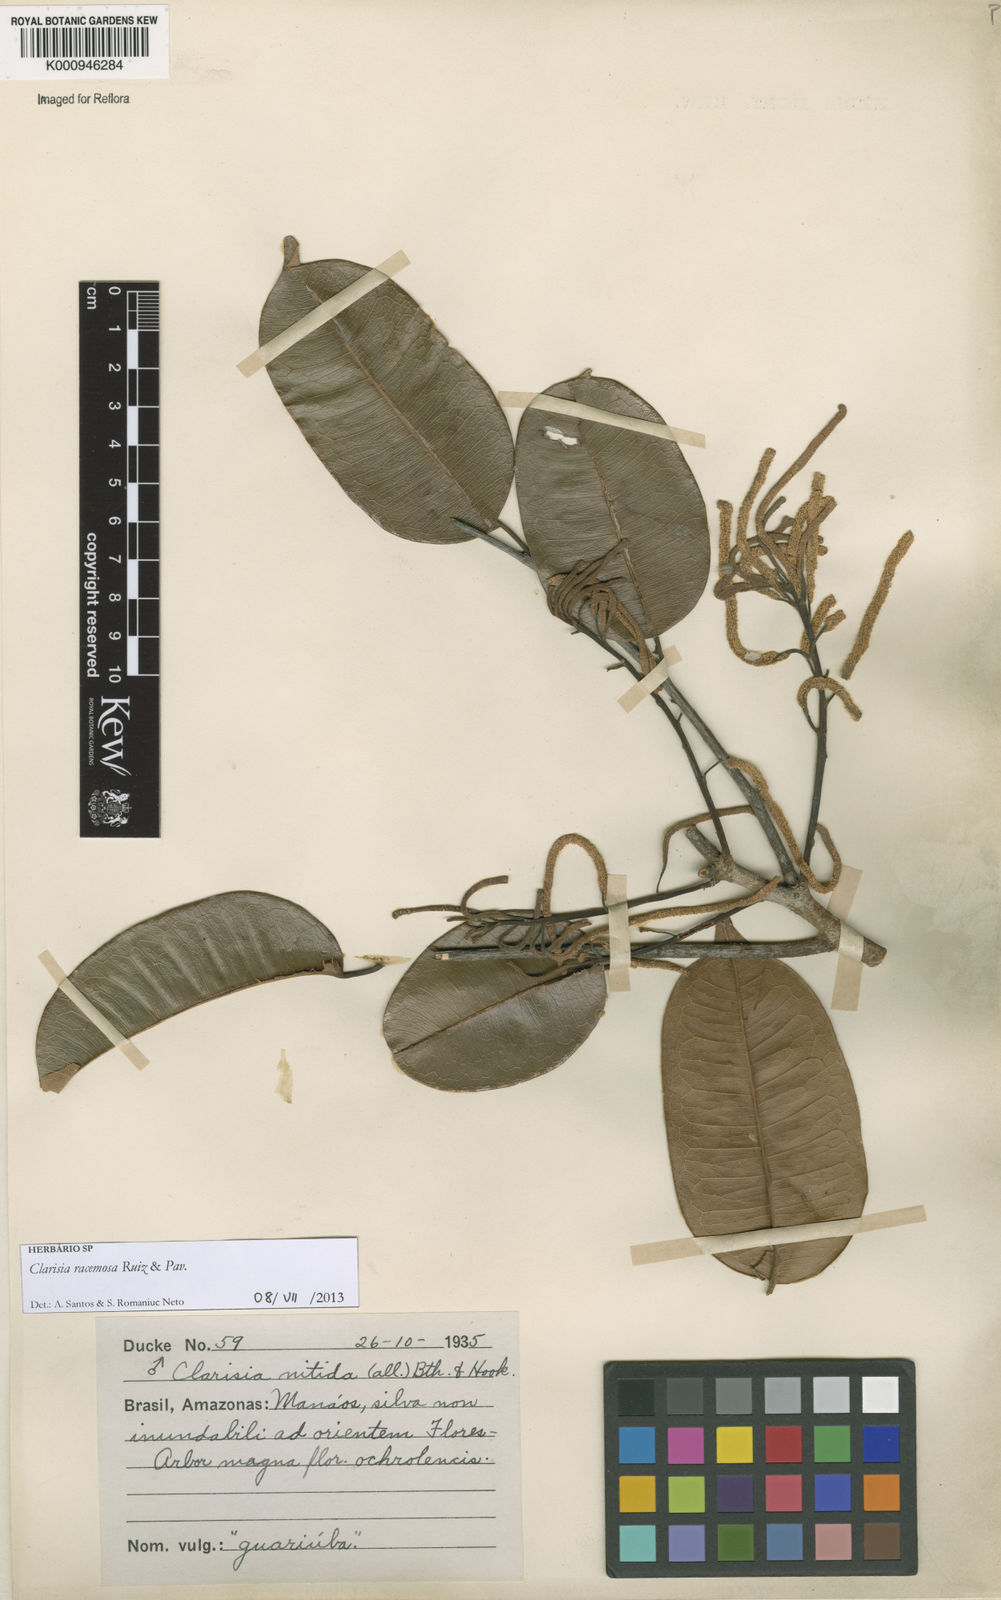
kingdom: Plantae
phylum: Tracheophyta
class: Magnoliopsida
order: Rosales
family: Moraceae
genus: Clarisia
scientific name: Clarisia racemosa
